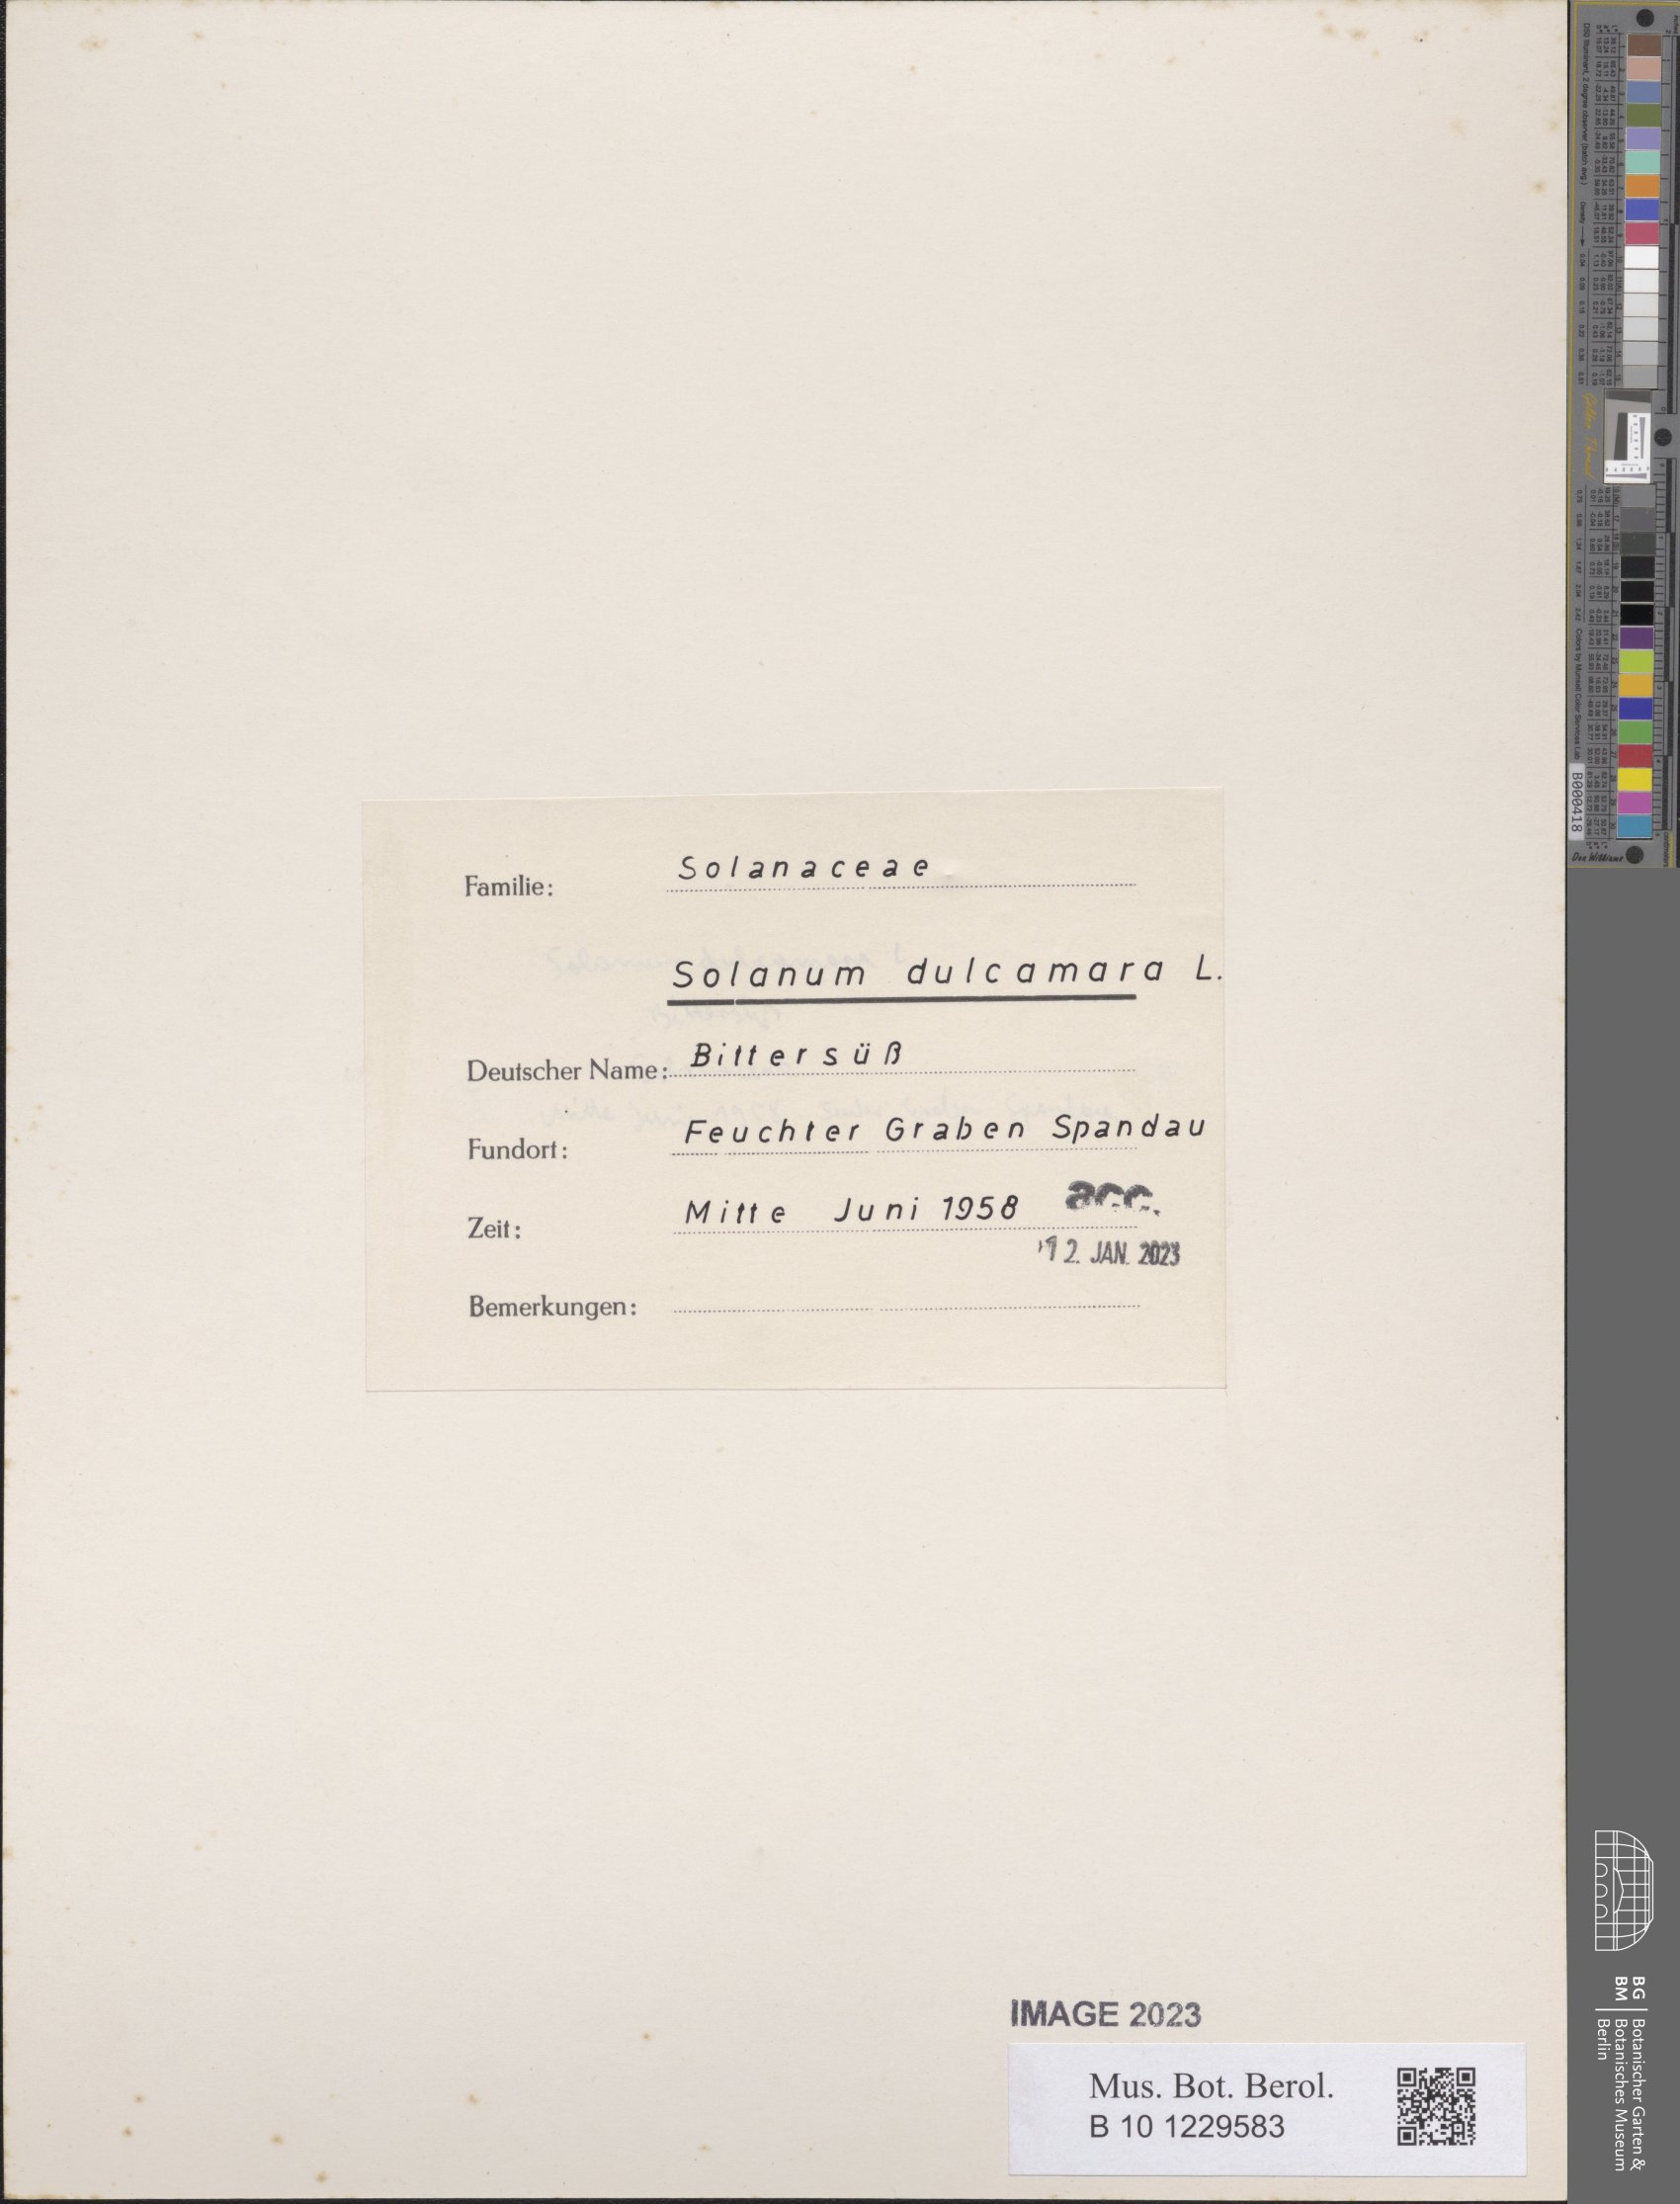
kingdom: Plantae
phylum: Tracheophyta
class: Magnoliopsida
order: Solanales
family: Solanaceae
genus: Solanum
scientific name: Solanum dulcamara
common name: Climbing nightshade
